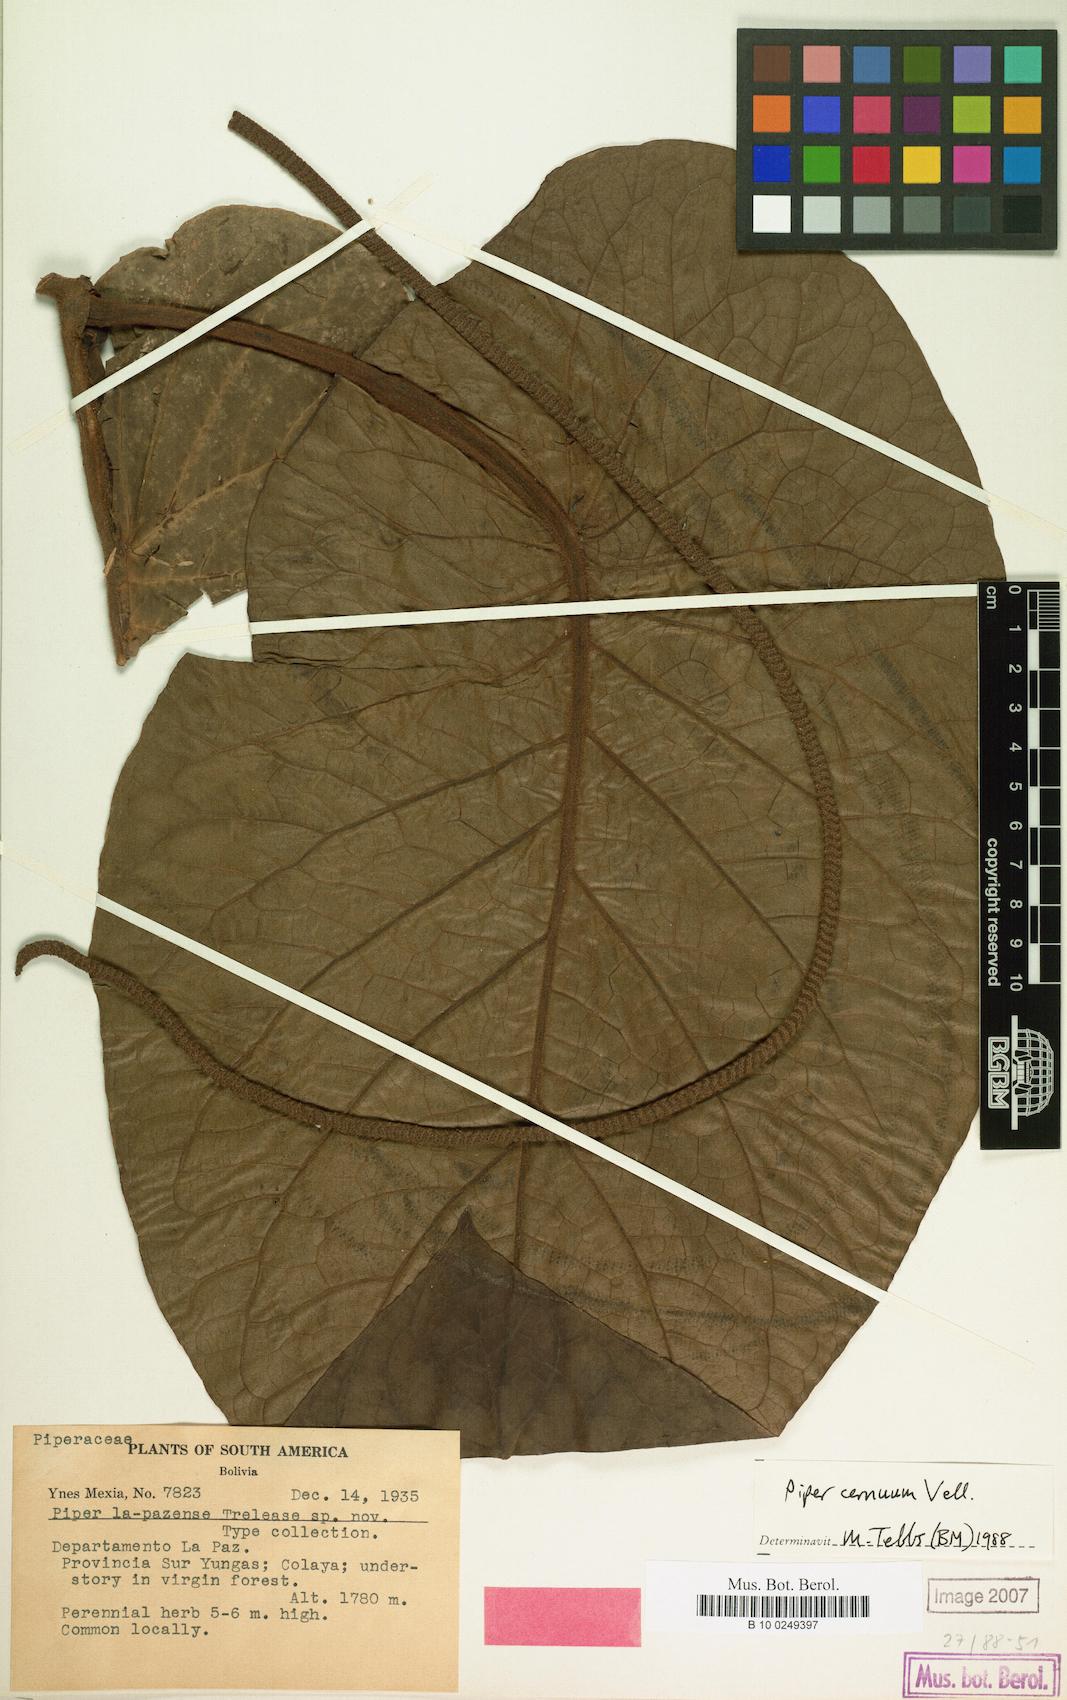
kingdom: Plantae
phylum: Tracheophyta
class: Magnoliopsida
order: Piperales
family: Piperaceae
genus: Piper
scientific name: Piper cernuum
